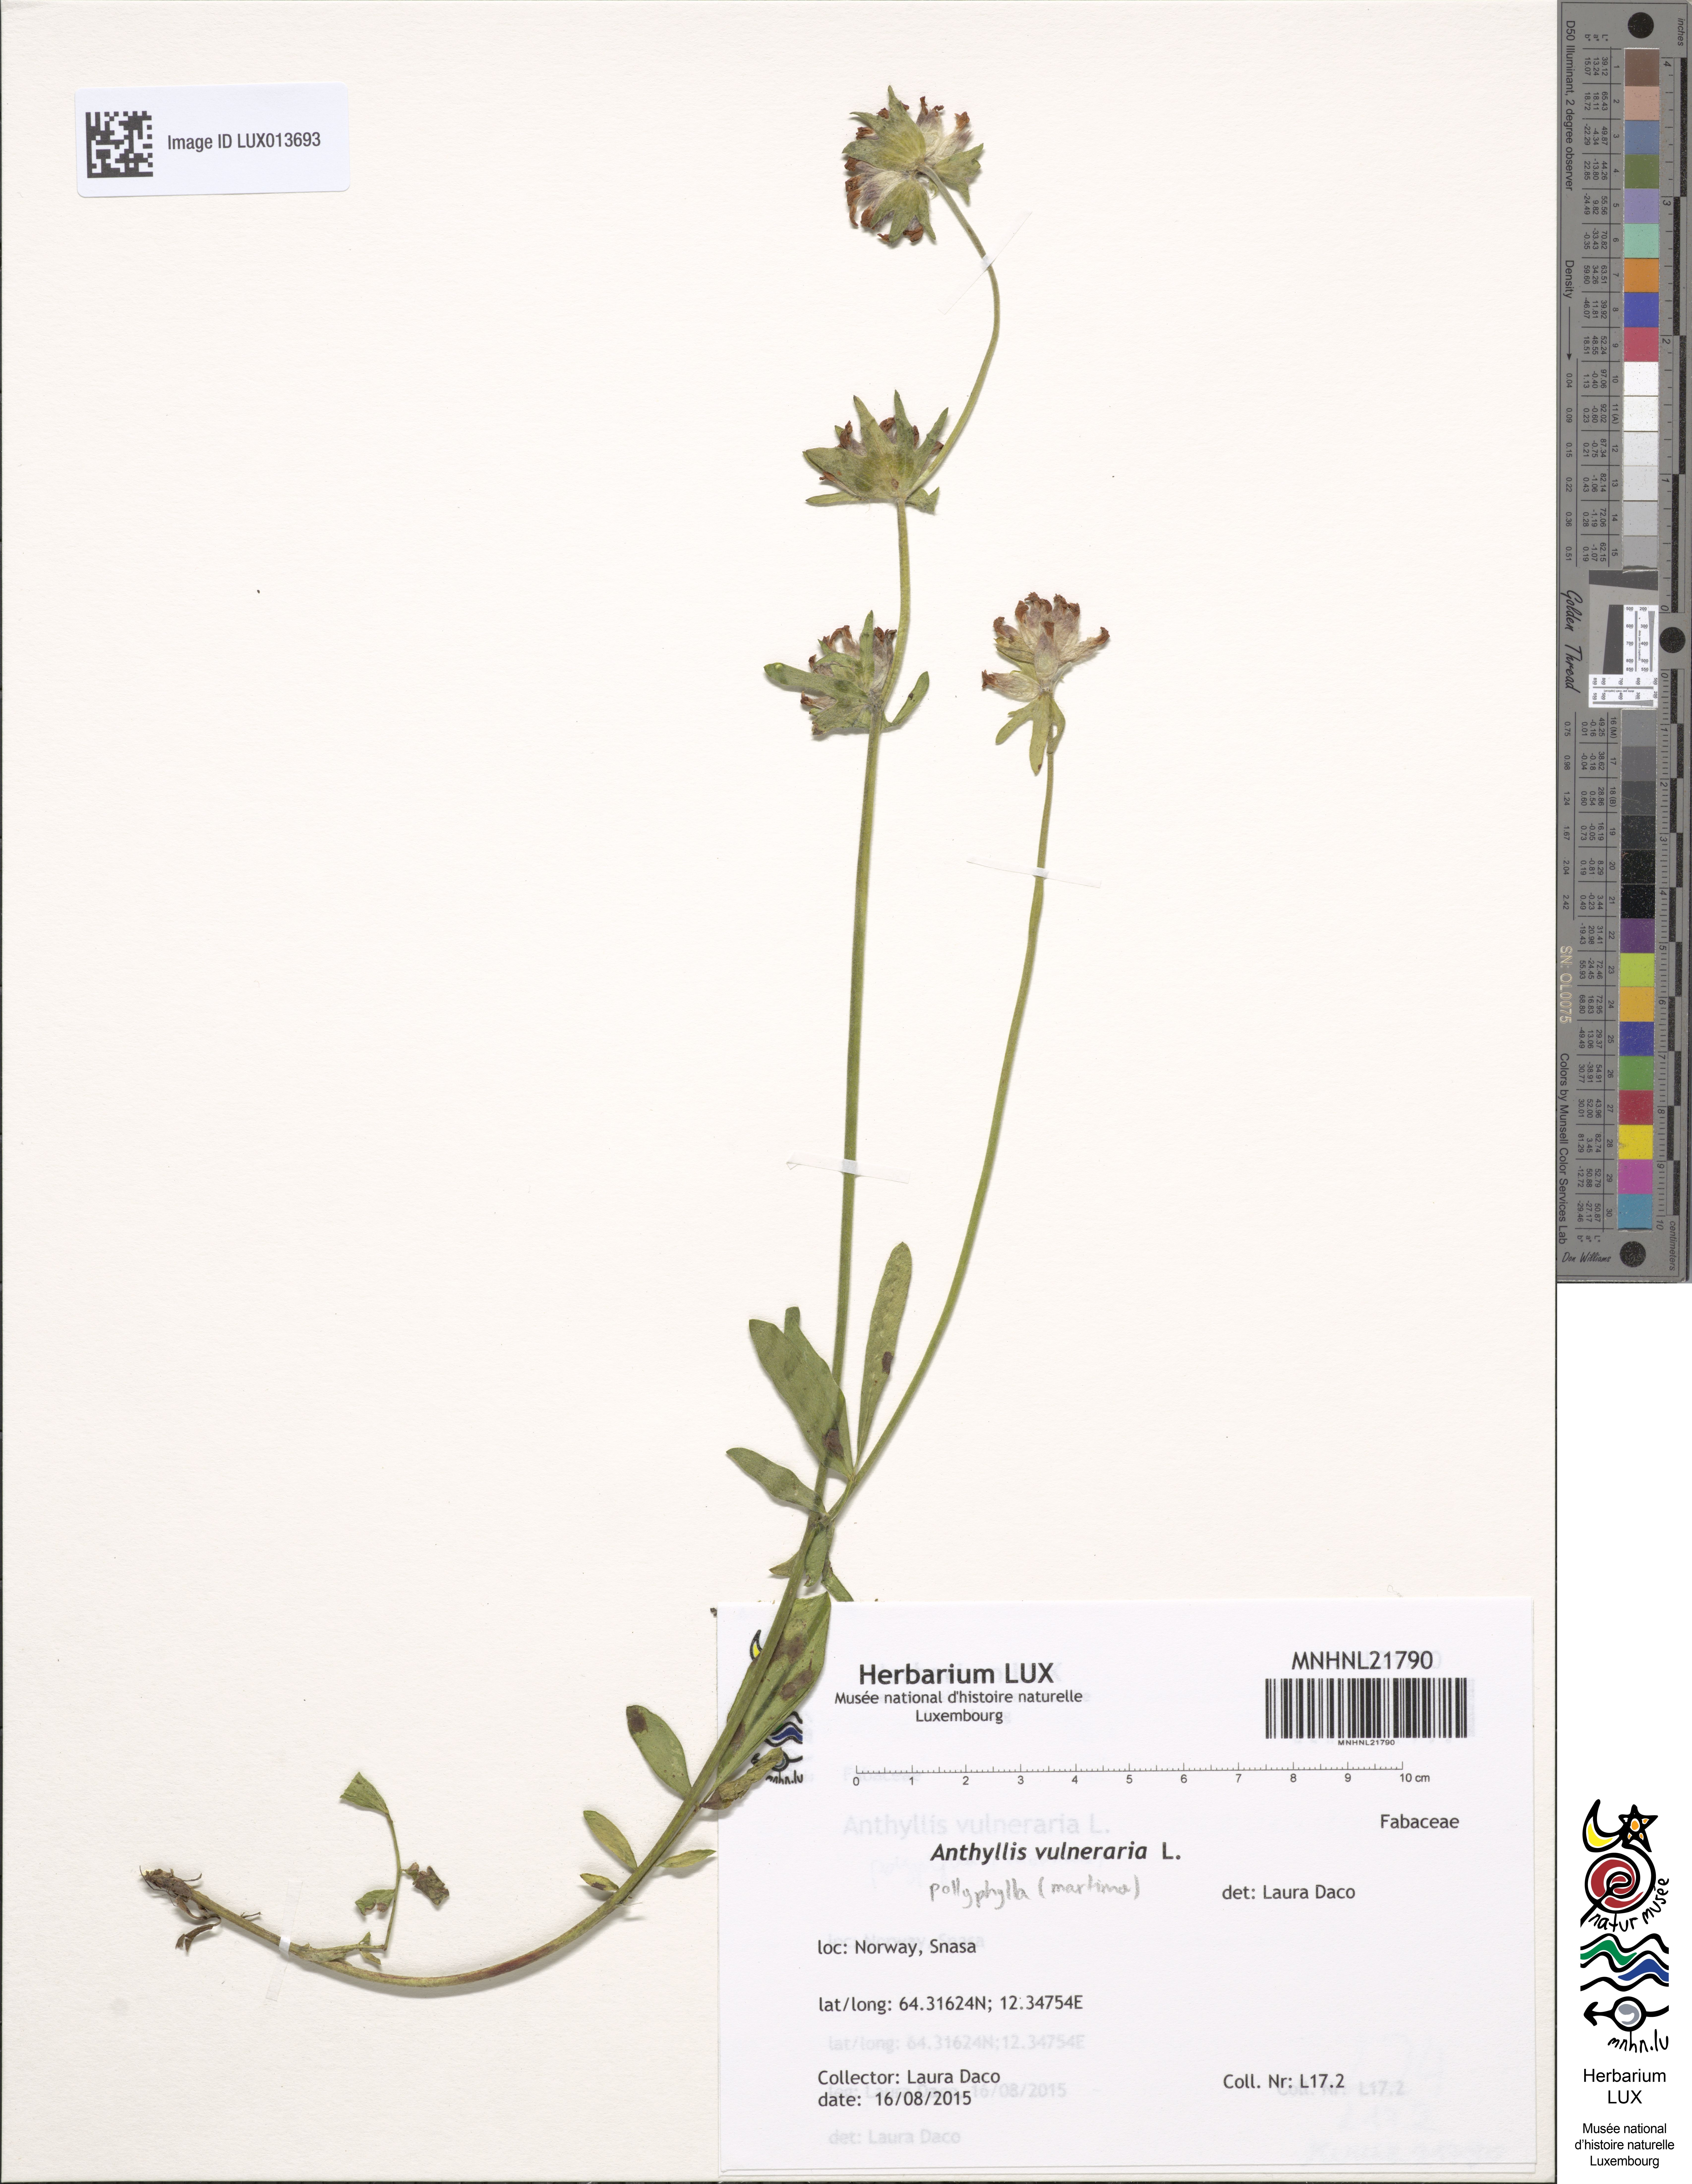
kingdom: Plantae
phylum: Tracheophyta
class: Magnoliopsida
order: Fabales
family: Fabaceae
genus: Anthyllis
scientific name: Anthyllis vulneraria
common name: Kidney vetch
